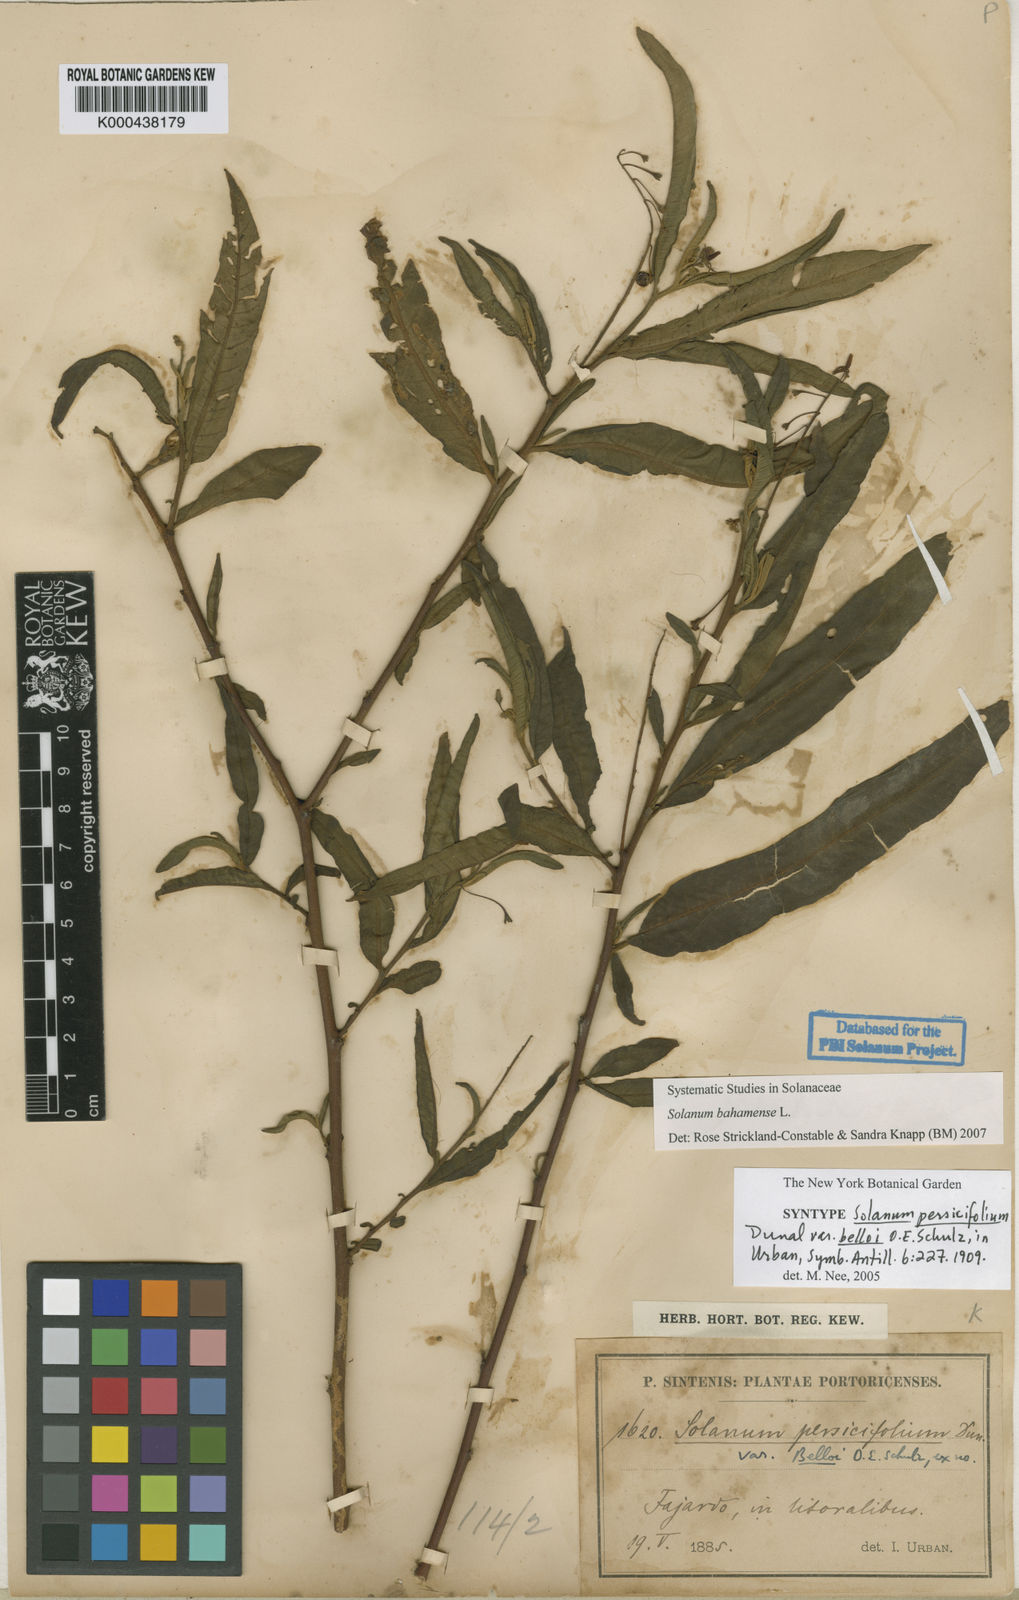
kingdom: Plantae
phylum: Tracheophyta
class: Magnoliopsida
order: Solanales
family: Solanaceae
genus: Solanum
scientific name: Solanum bahamense
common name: Canker-berry
